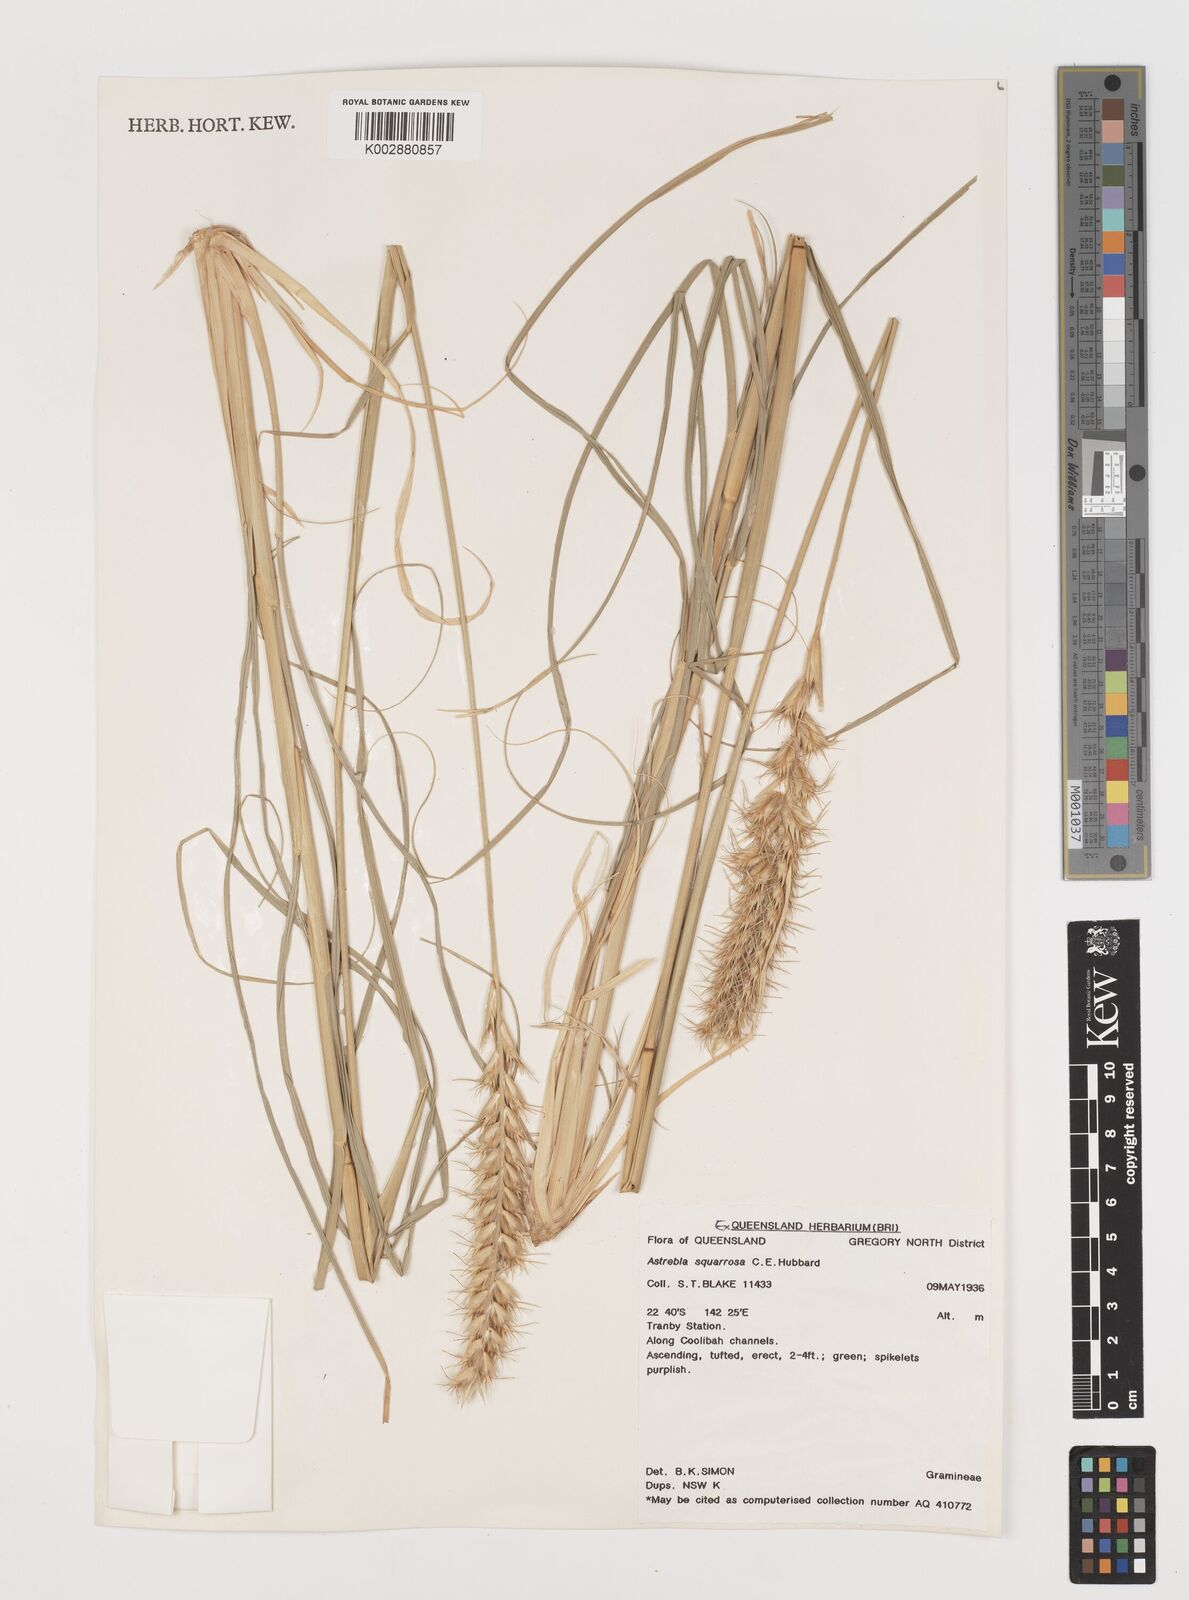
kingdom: Plantae
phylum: Tracheophyta
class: Liliopsida
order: Poales
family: Poaceae
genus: Astrebla
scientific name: Astrebla squarrosa
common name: Wheat-ear mitchell grass
